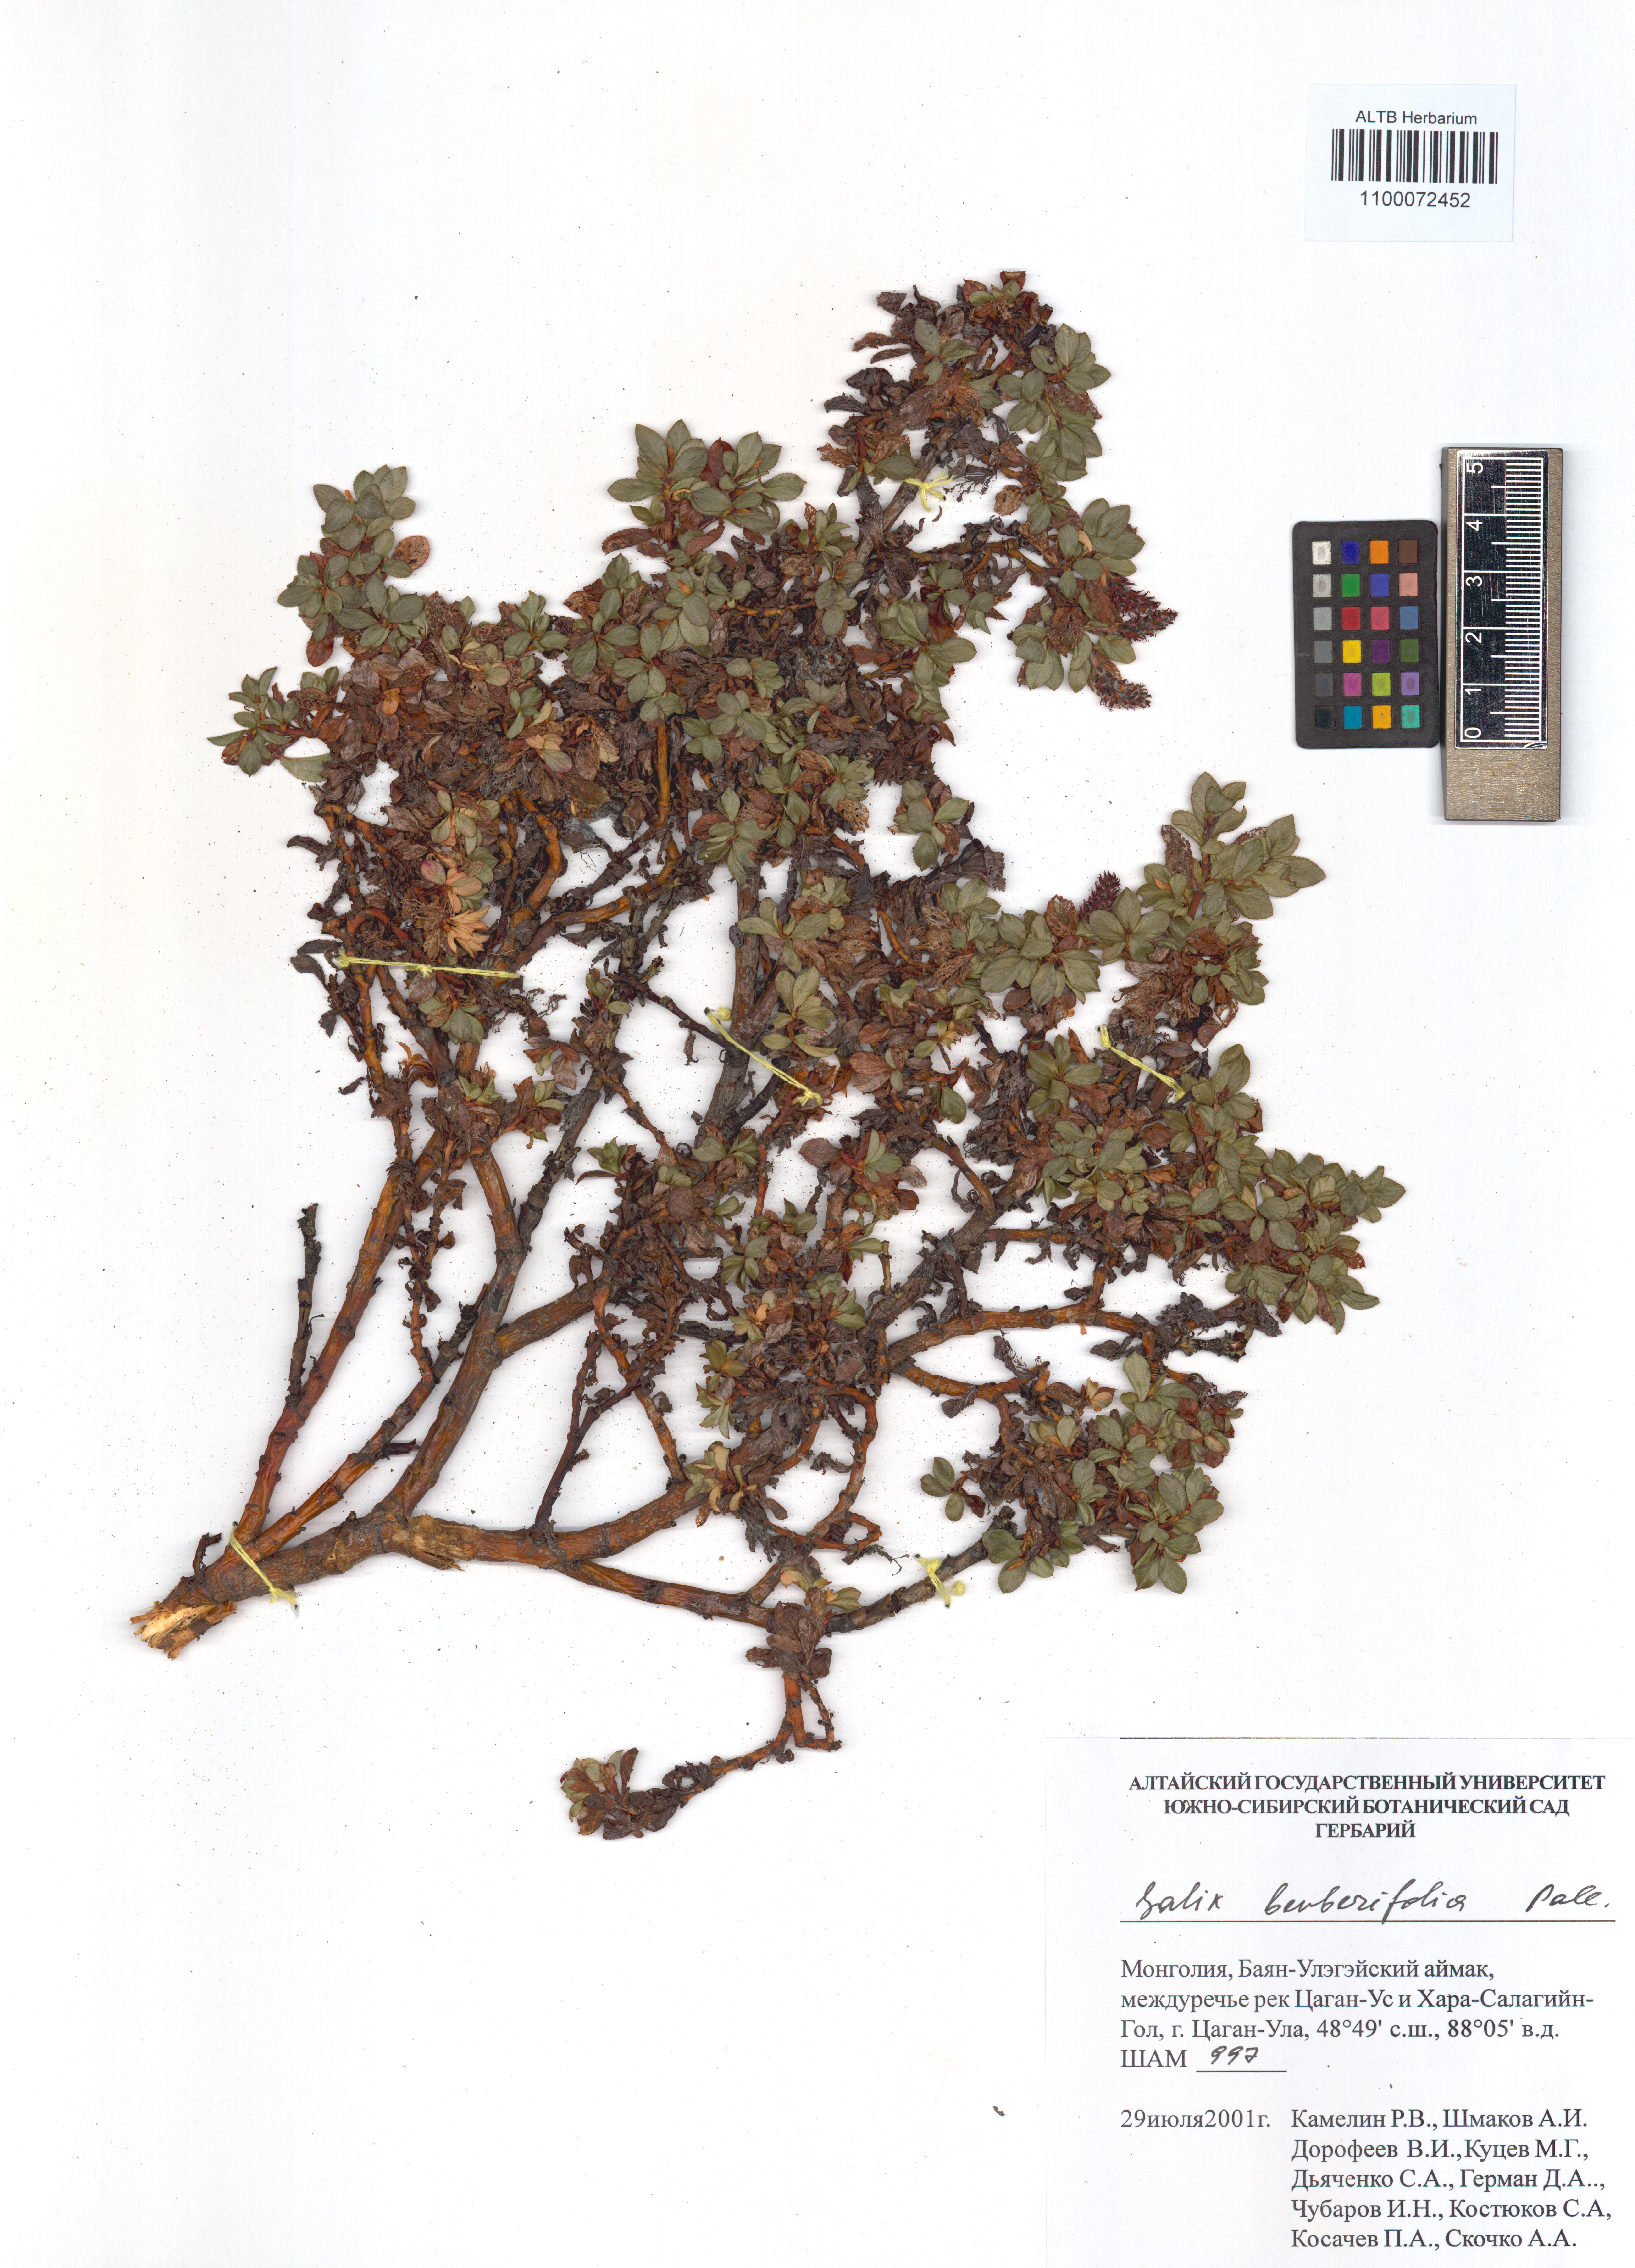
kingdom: Plantae
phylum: Tracheophyta
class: Magnoliopsida
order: Malpighiales
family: Salicaceae
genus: Salix
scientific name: Salix berberifolia
